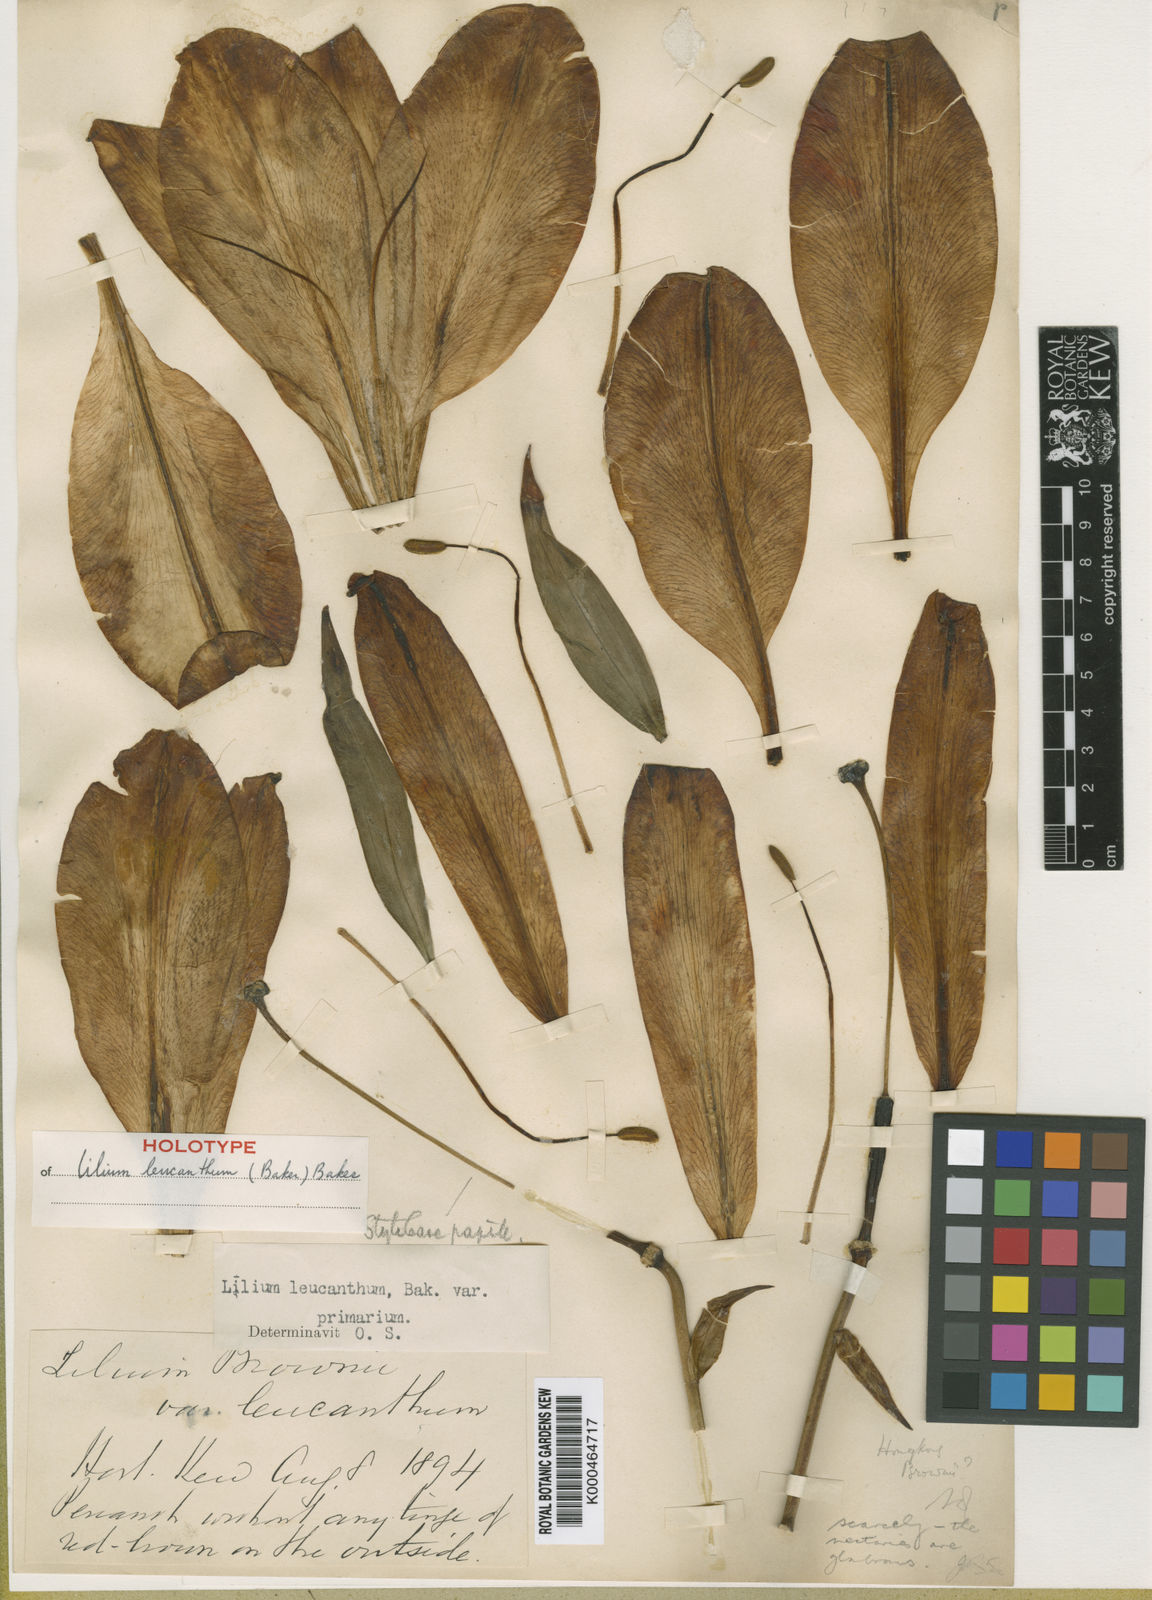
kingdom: Plantae
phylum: Tracheophyta
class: Liliopsida
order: Liliales
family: Liliaceae
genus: Lilium
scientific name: Lilium leucanthum
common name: Chinese white lily
